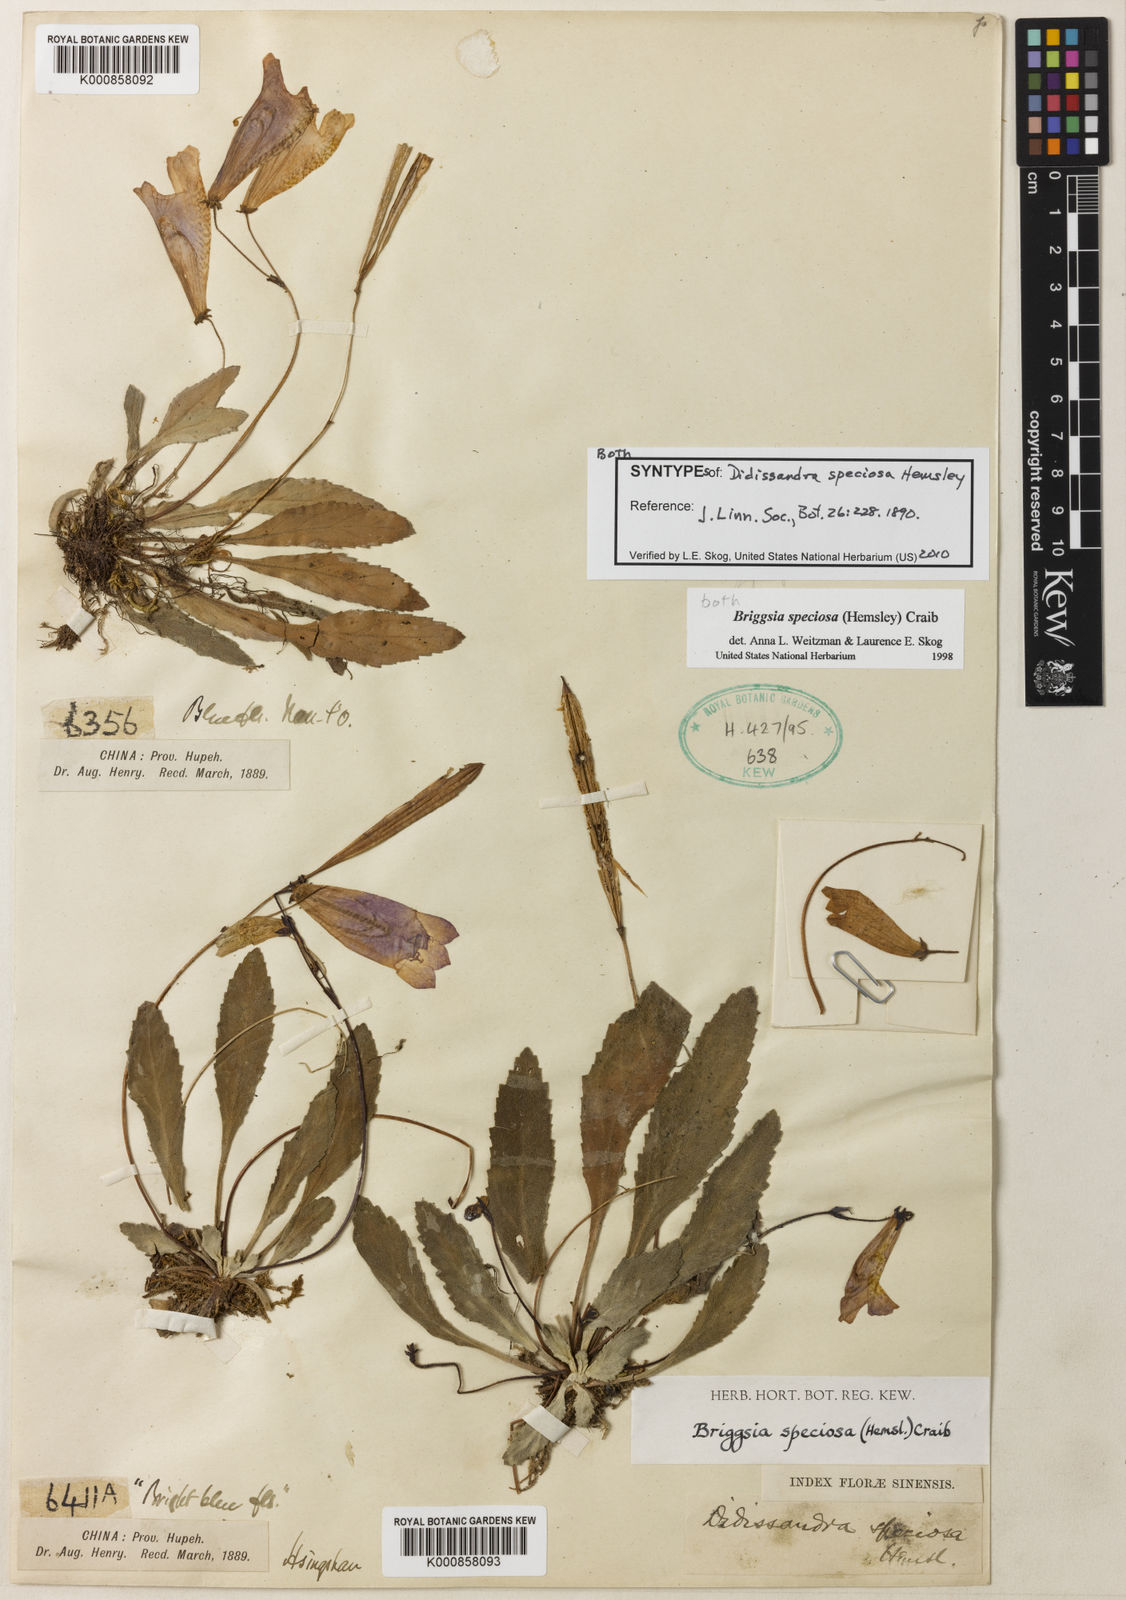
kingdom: Plantae
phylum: Tracheophyta
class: Magnoliopsida
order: Lamiales
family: Gesneriaceae
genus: Oreocharis
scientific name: Oreocharis
